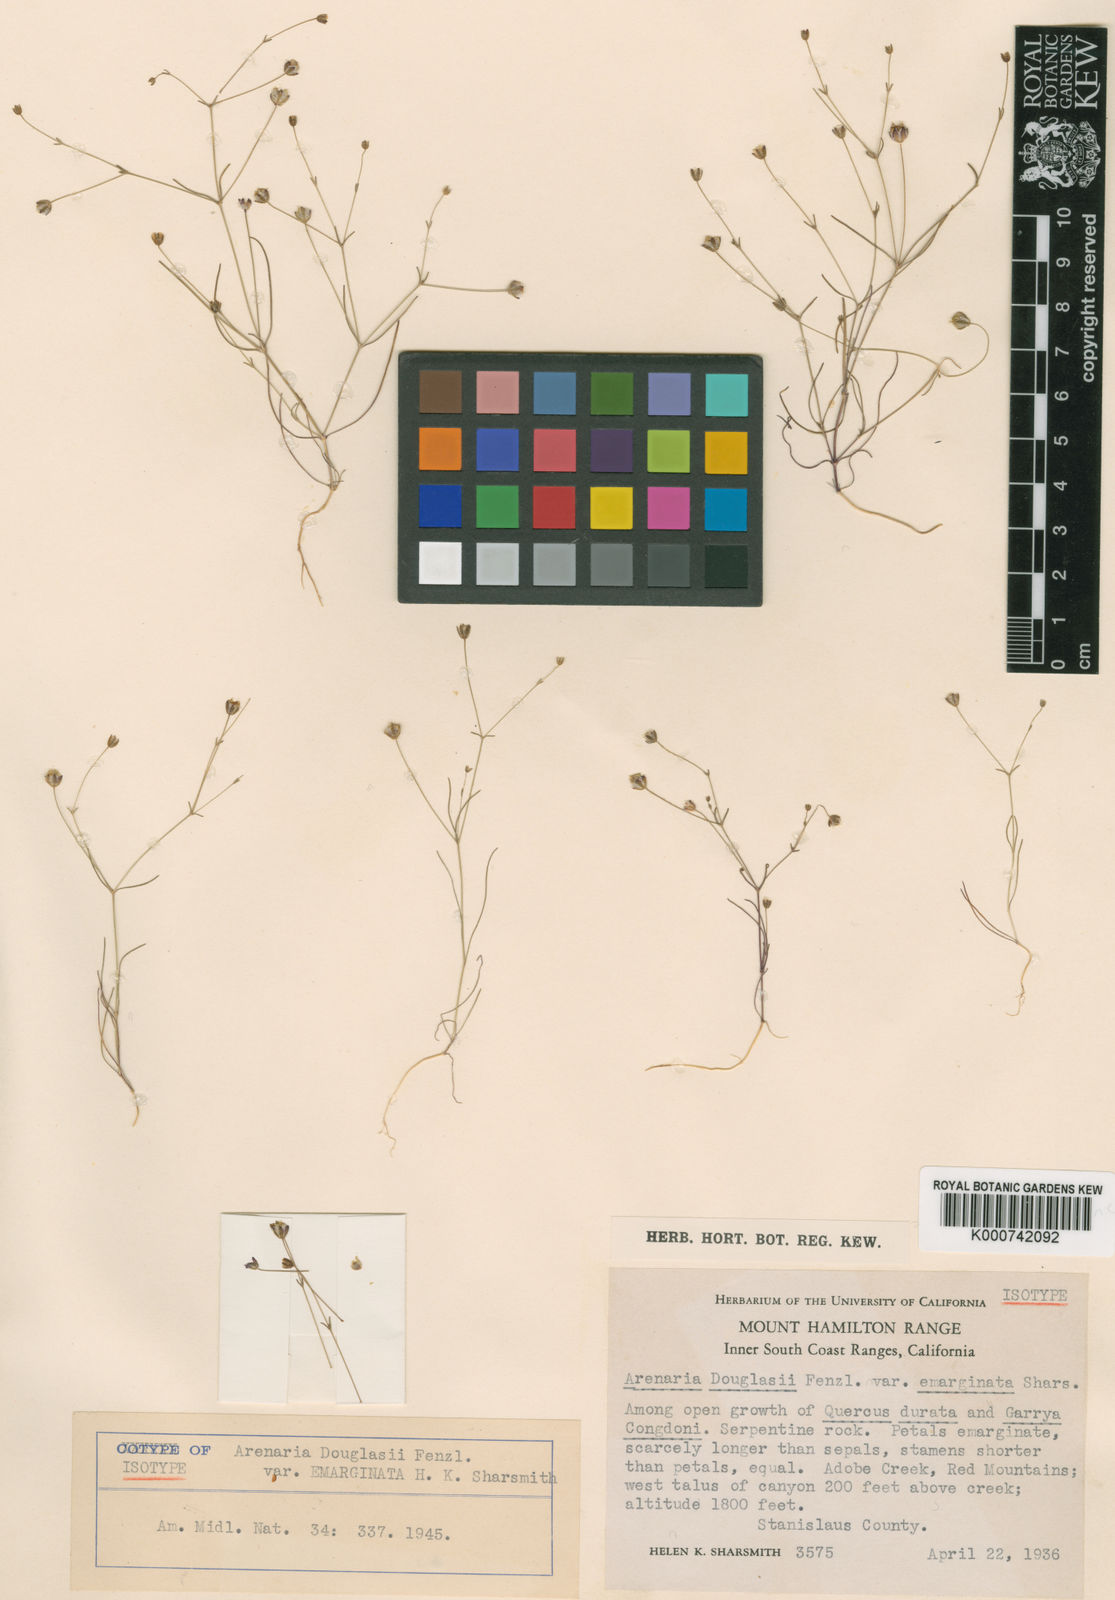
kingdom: Plantae
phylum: Tracheophyta
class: Magnoliopsida
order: Caryophyllales
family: Caryophyllaceae
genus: Sabulina
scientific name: Sabulina douglasii
